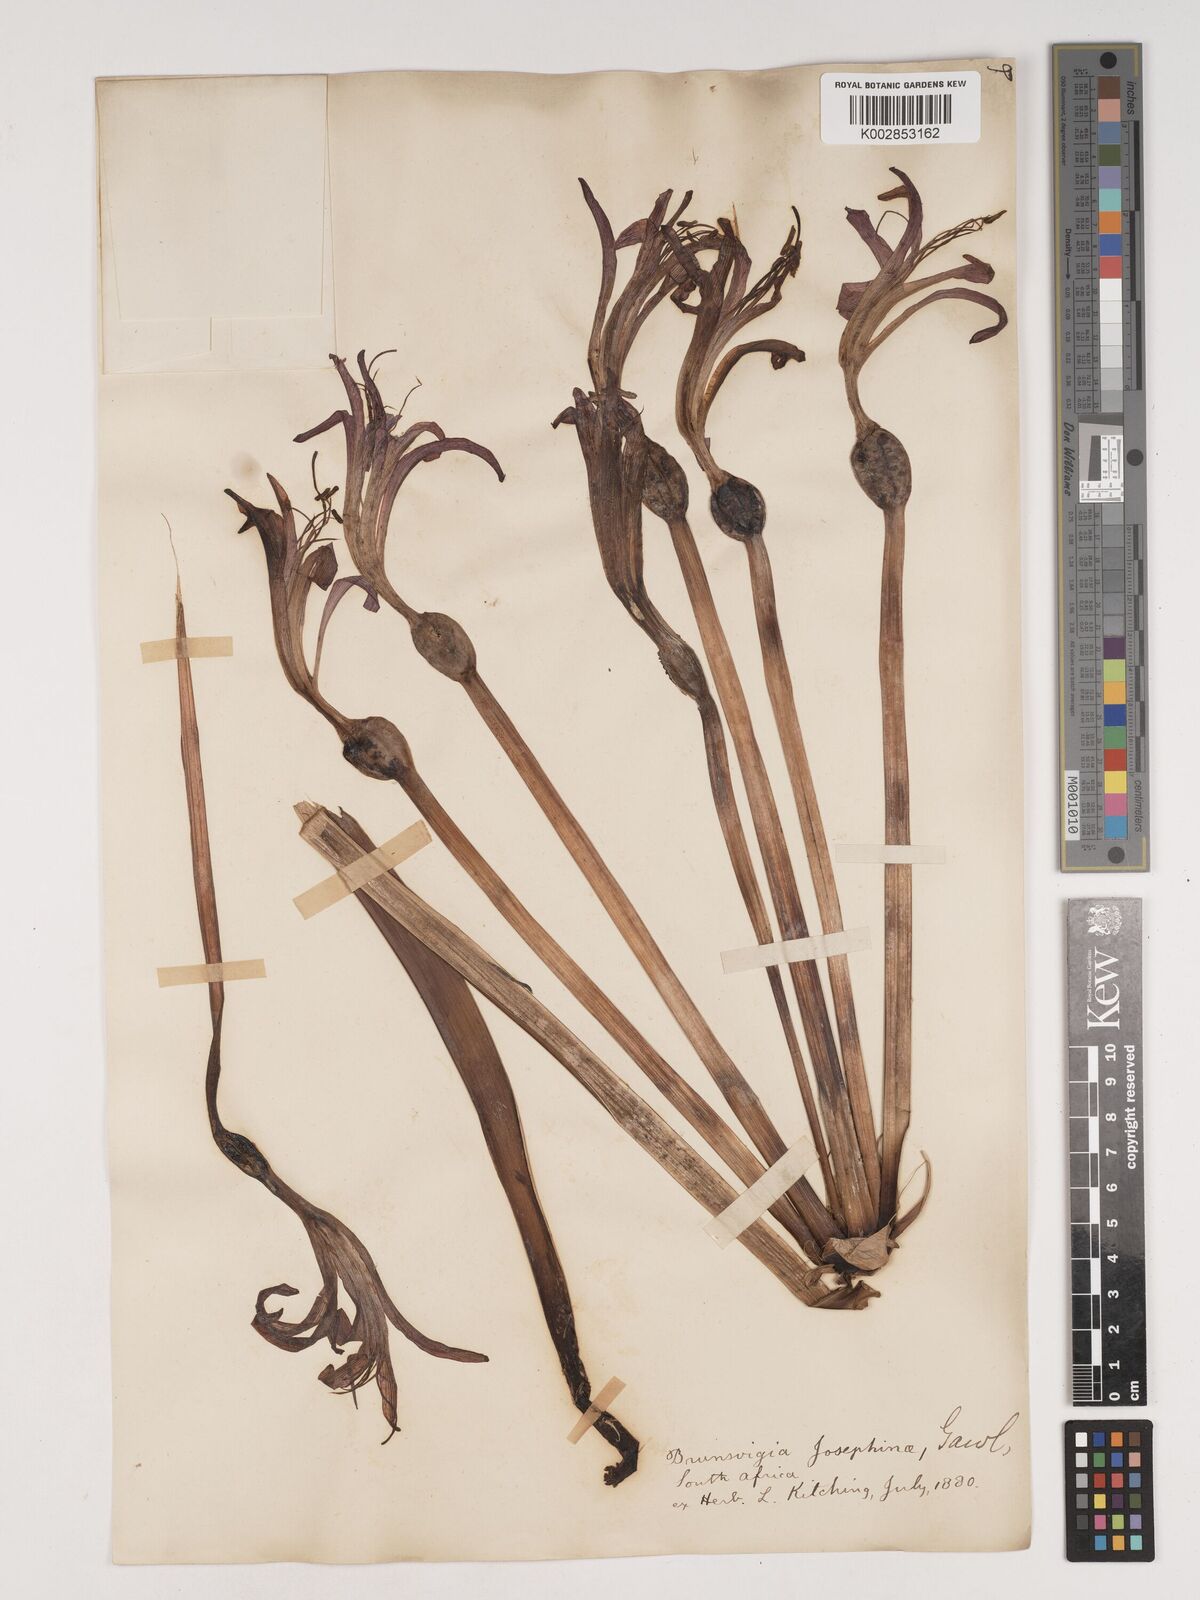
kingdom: Plantae
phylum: Tracheophyta
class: Liliopsida
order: Asparagales
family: Amaryllidaceae
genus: Brunsvigia
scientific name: Brunsvigia josephinae
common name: Josephine's-lily
